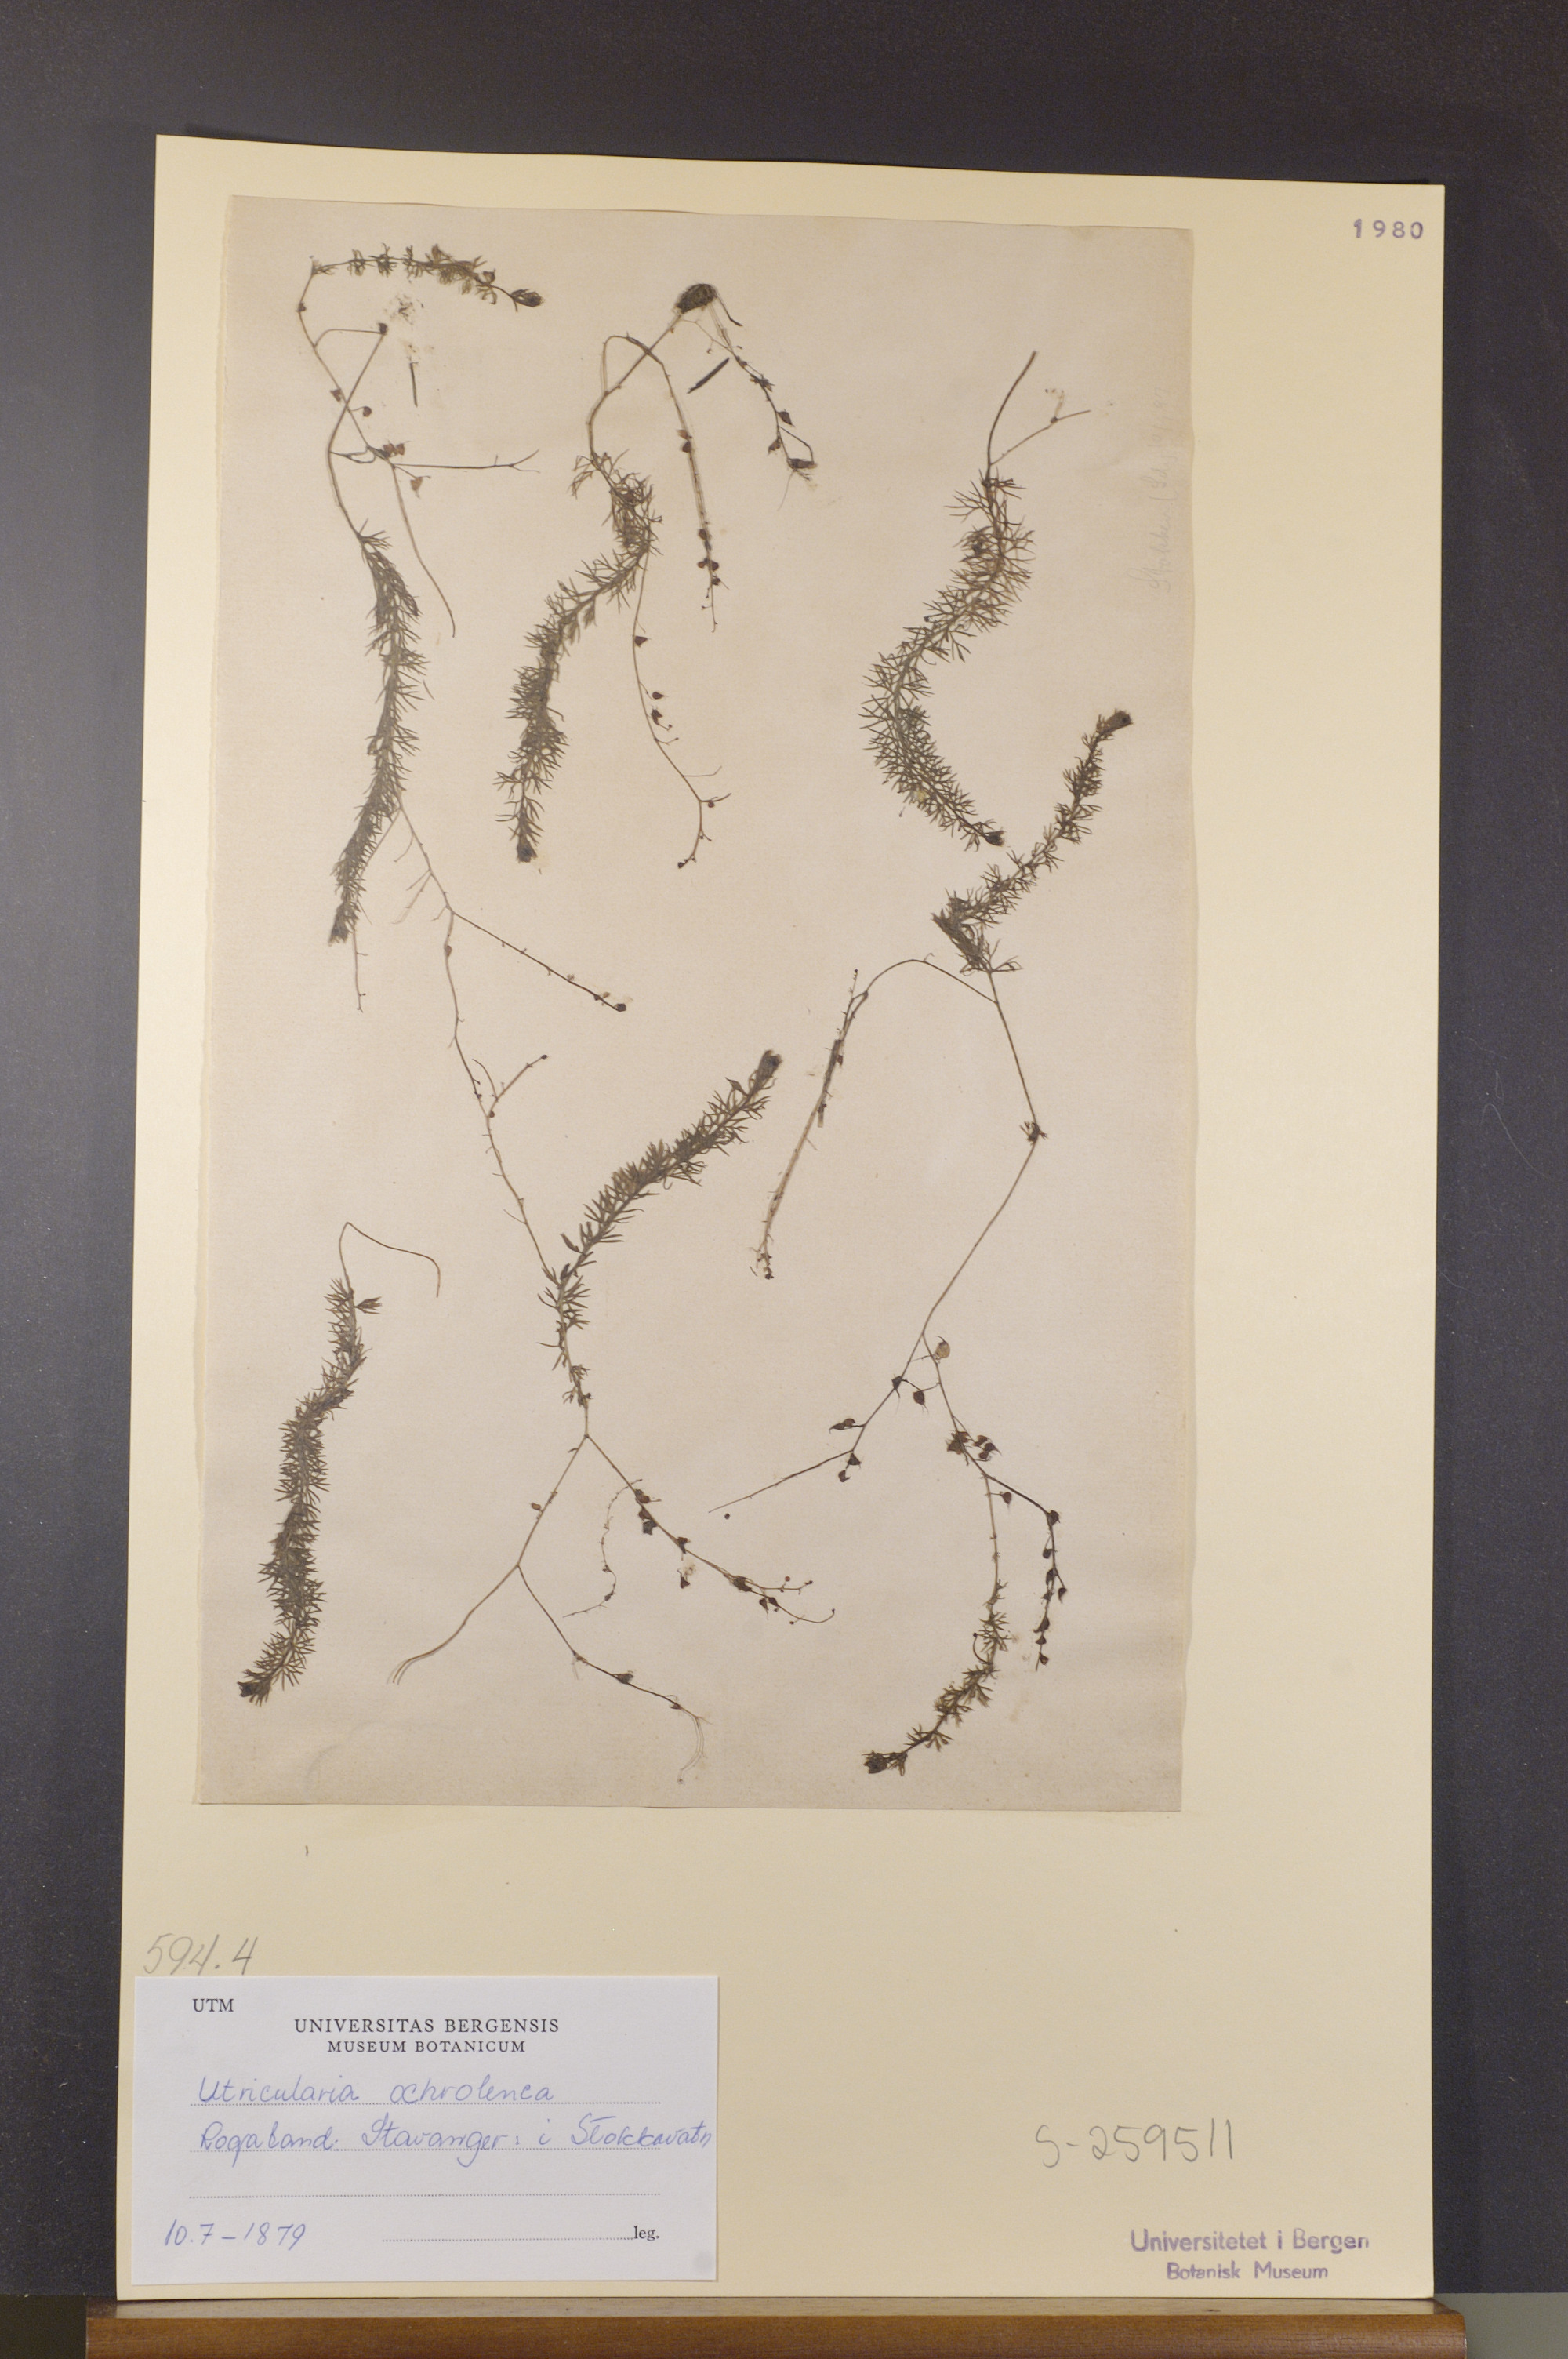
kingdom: Plantae
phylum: Tracheophyta
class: Magnoliopsida
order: Lamiales
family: Lentibulariaceae
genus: Utricularia
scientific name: Utricularia intermedia
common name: Intermediate bladderwort
